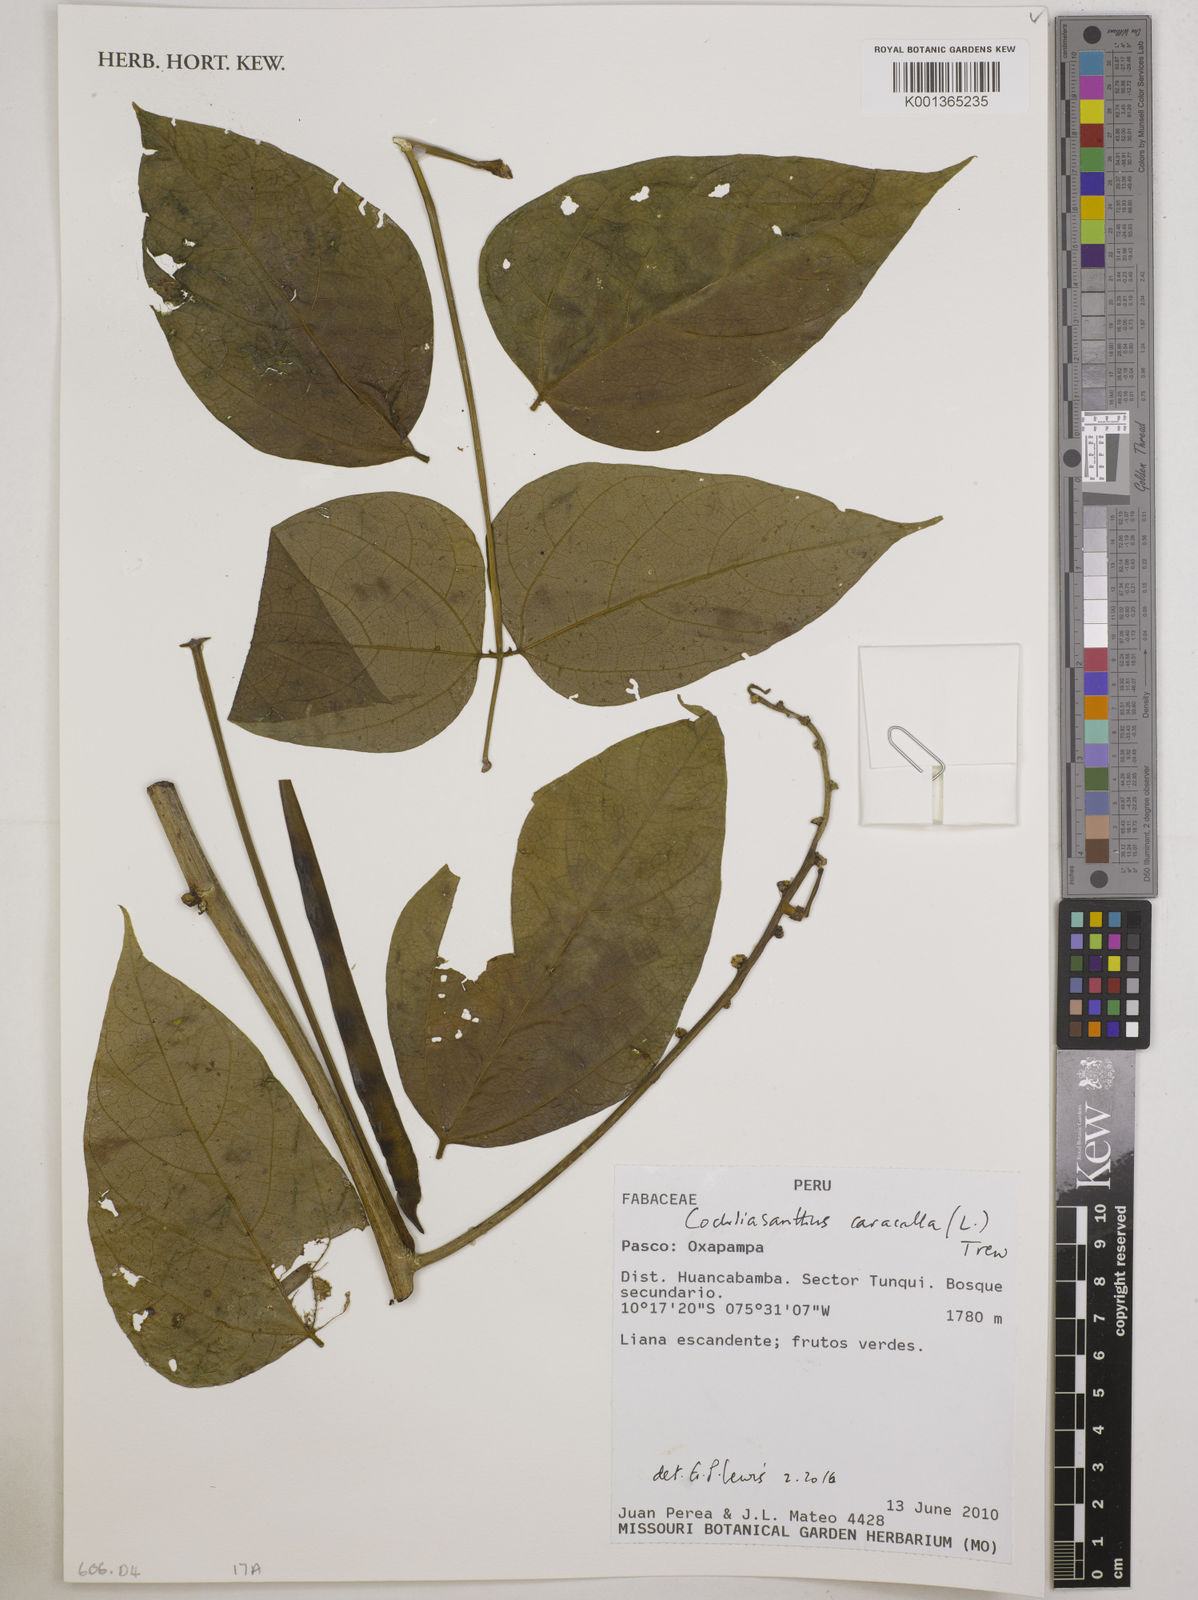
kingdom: Plantae
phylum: Tracheophyta
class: Magnoliopsida
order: Fabales
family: Fabaceae
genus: Cochliasanthus
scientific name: Cochliasanthus caracalla
